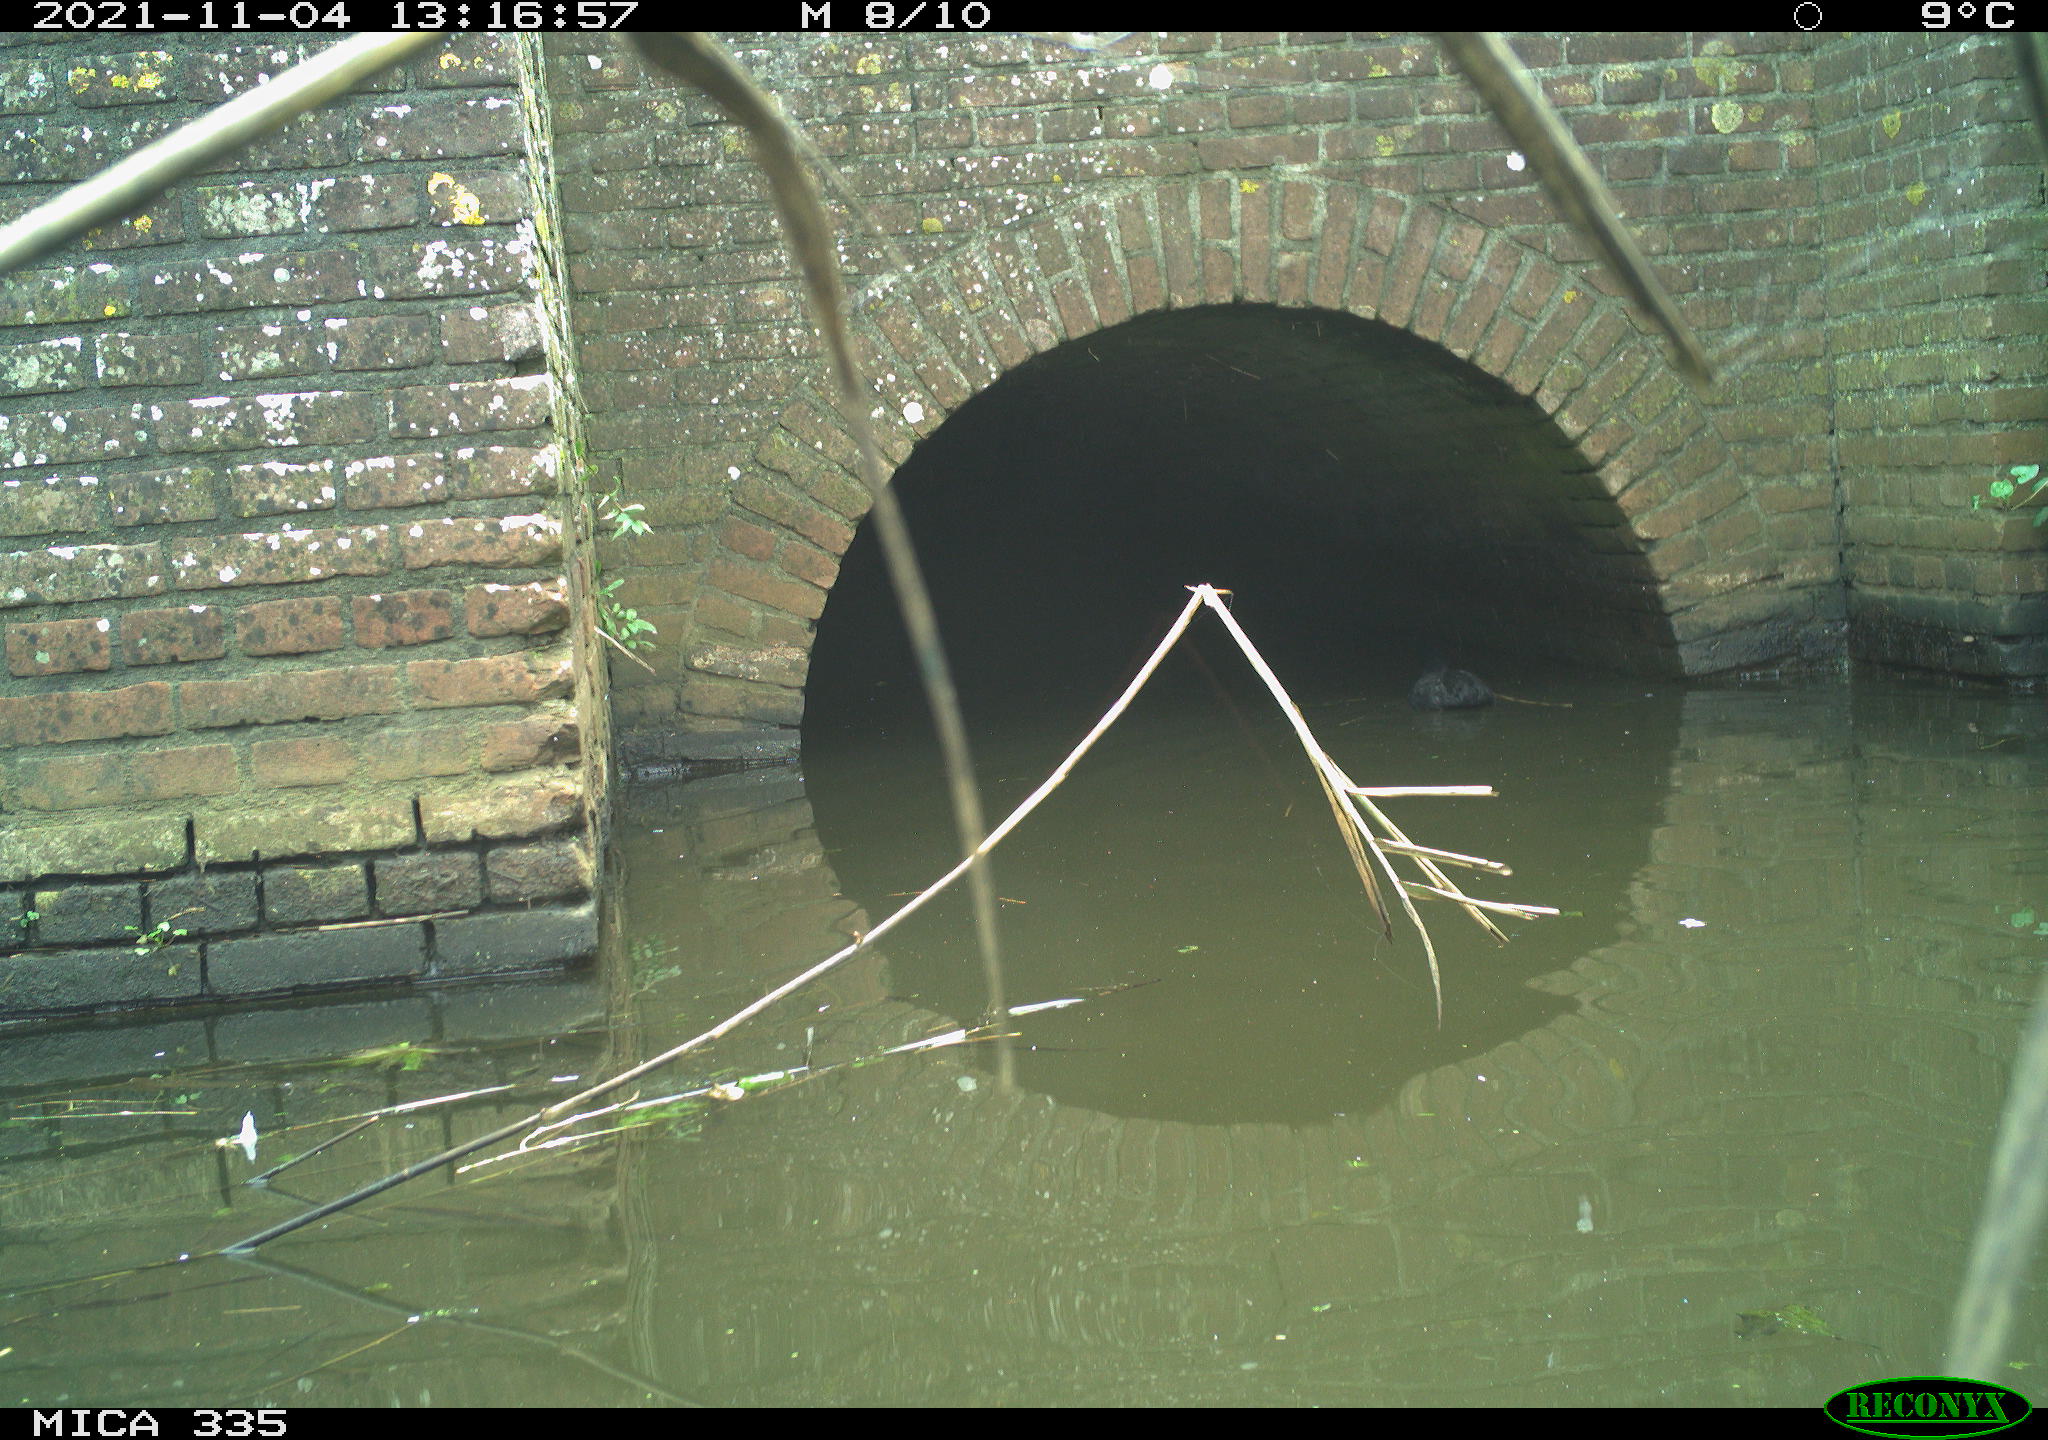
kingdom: Animalia
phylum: Chordata
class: Aves
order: Gruiformes
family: Rallidae
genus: Fulica
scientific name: Fulica atra
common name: Eurasian coot
